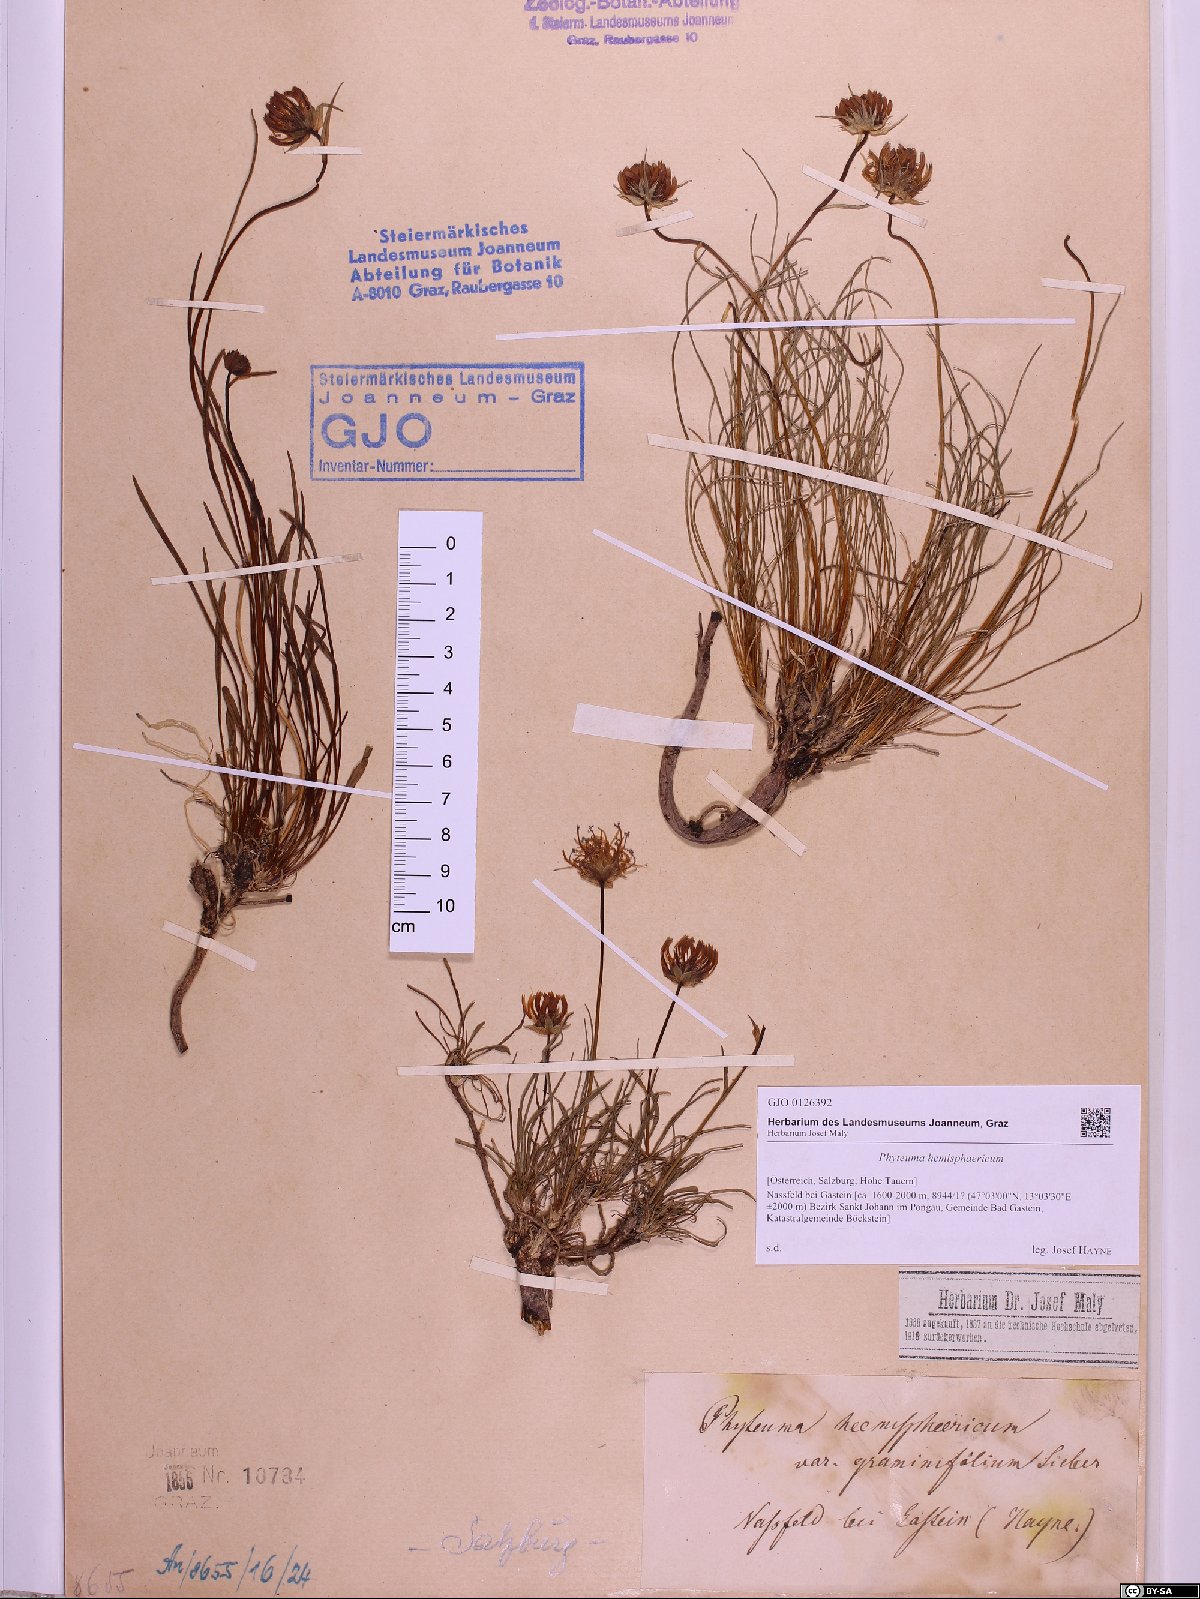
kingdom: Plantae
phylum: Tracheophyta
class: Magnoliopsida
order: Asterales
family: Campanulaceae
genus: Phyteuma
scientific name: Phyteuma hemisphaericum
